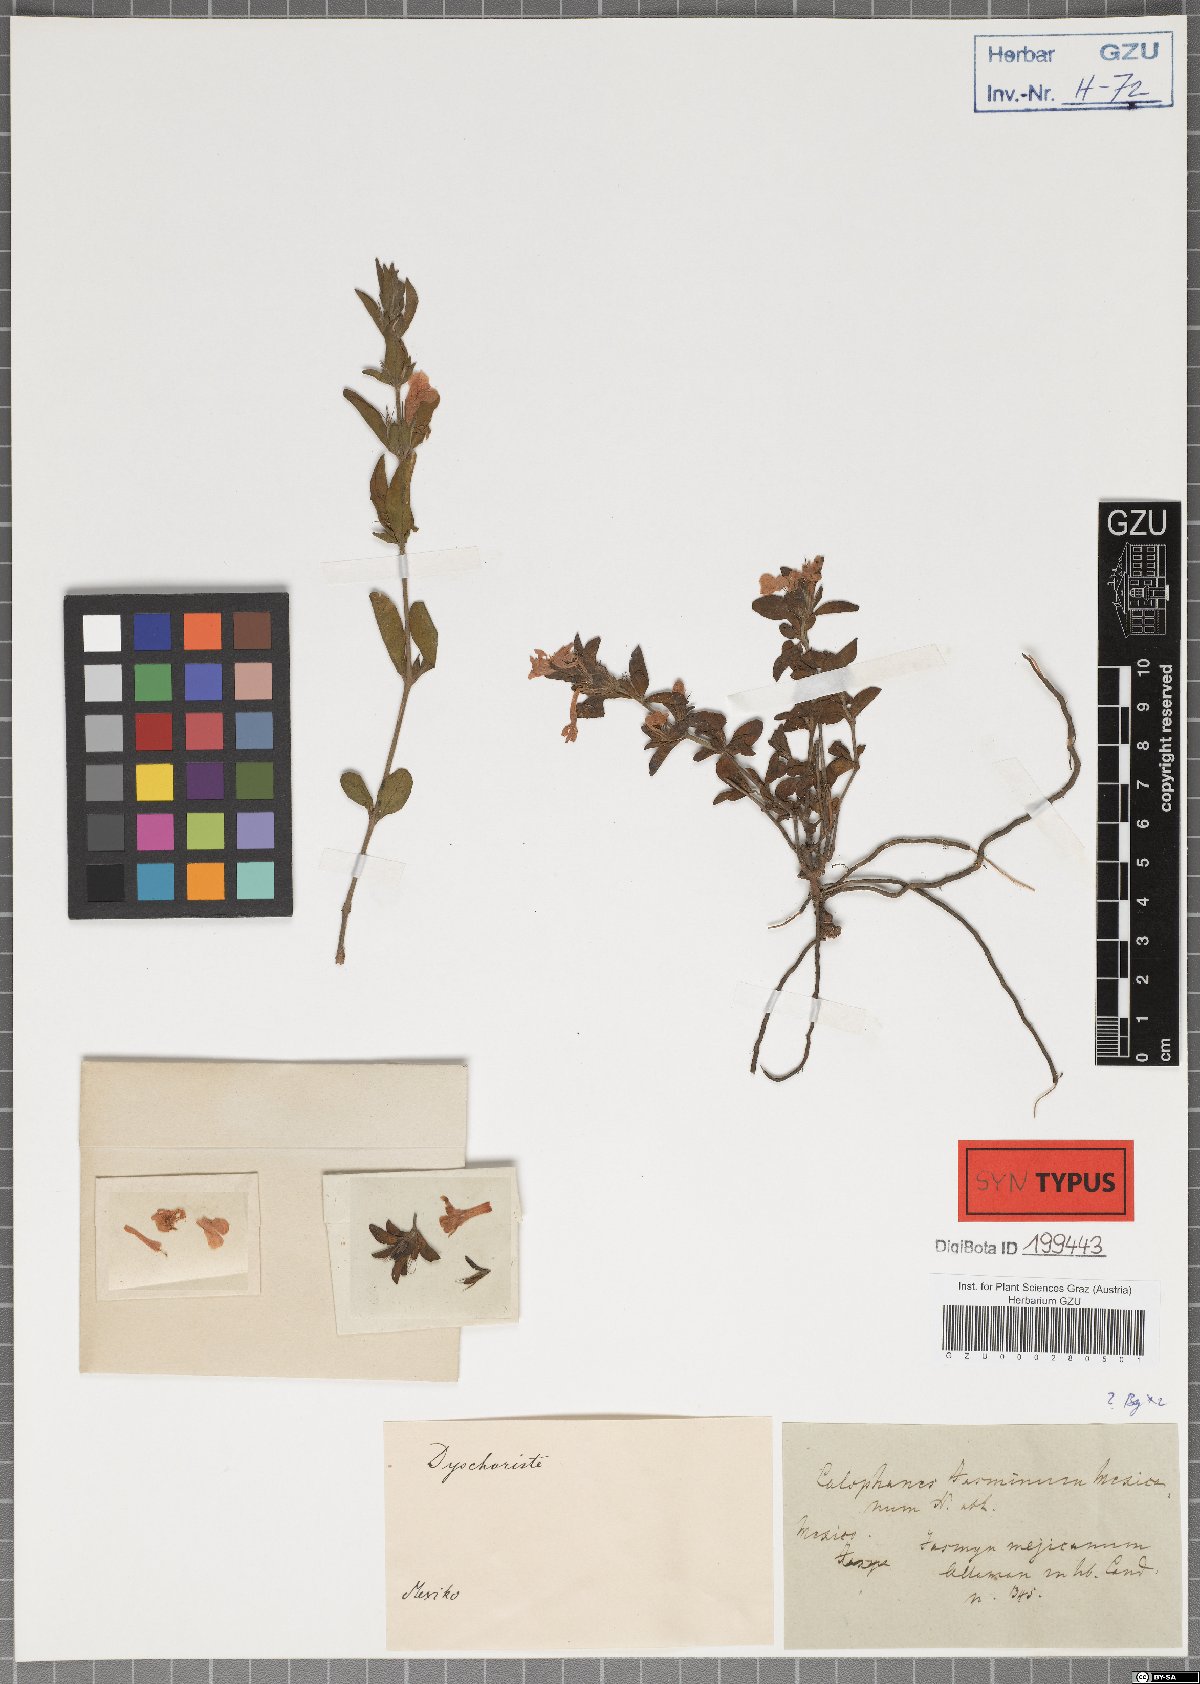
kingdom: Plantae
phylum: Tracheophyta
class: Magnoliopsida
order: Lamiales
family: Acanthaceae
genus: Dyschoriste
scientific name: Dyschoriste microphylla
